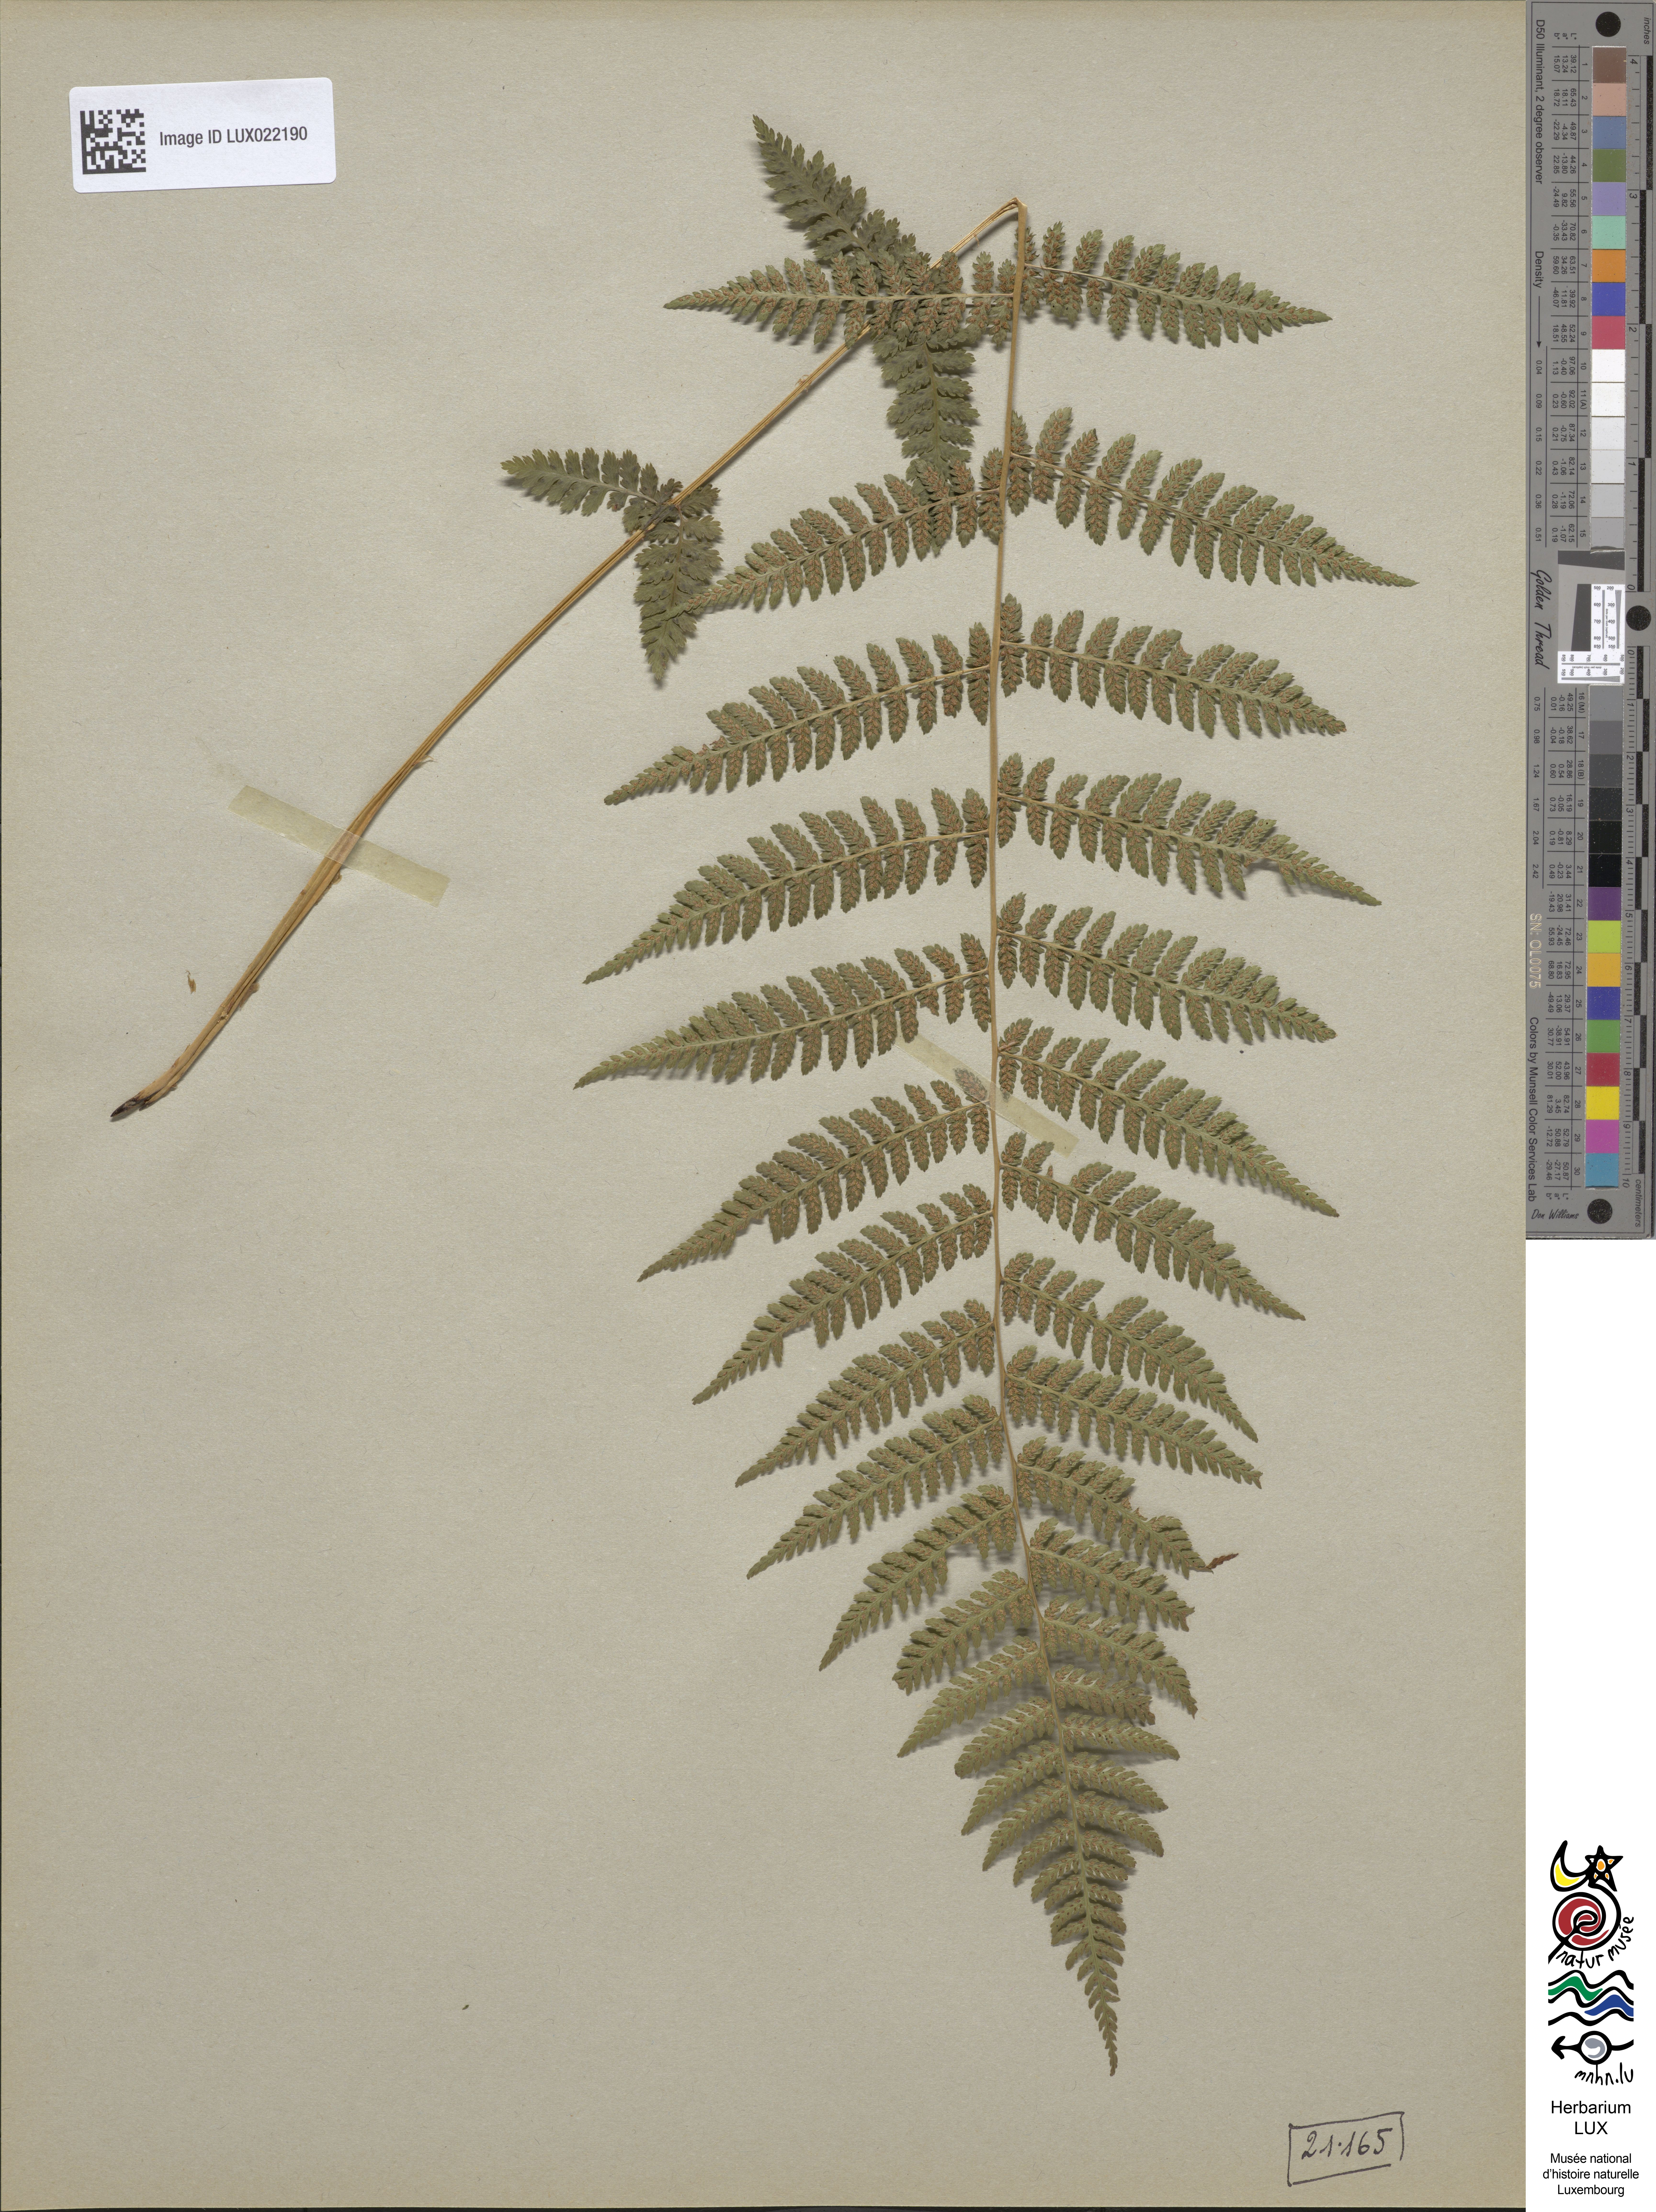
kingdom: Plantae
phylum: Tracheophyta
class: Polypodiopsida
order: Polypodiales
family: Athyriaceae
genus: Athyrium
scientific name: Athyrium filix-femina
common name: Lady fern
